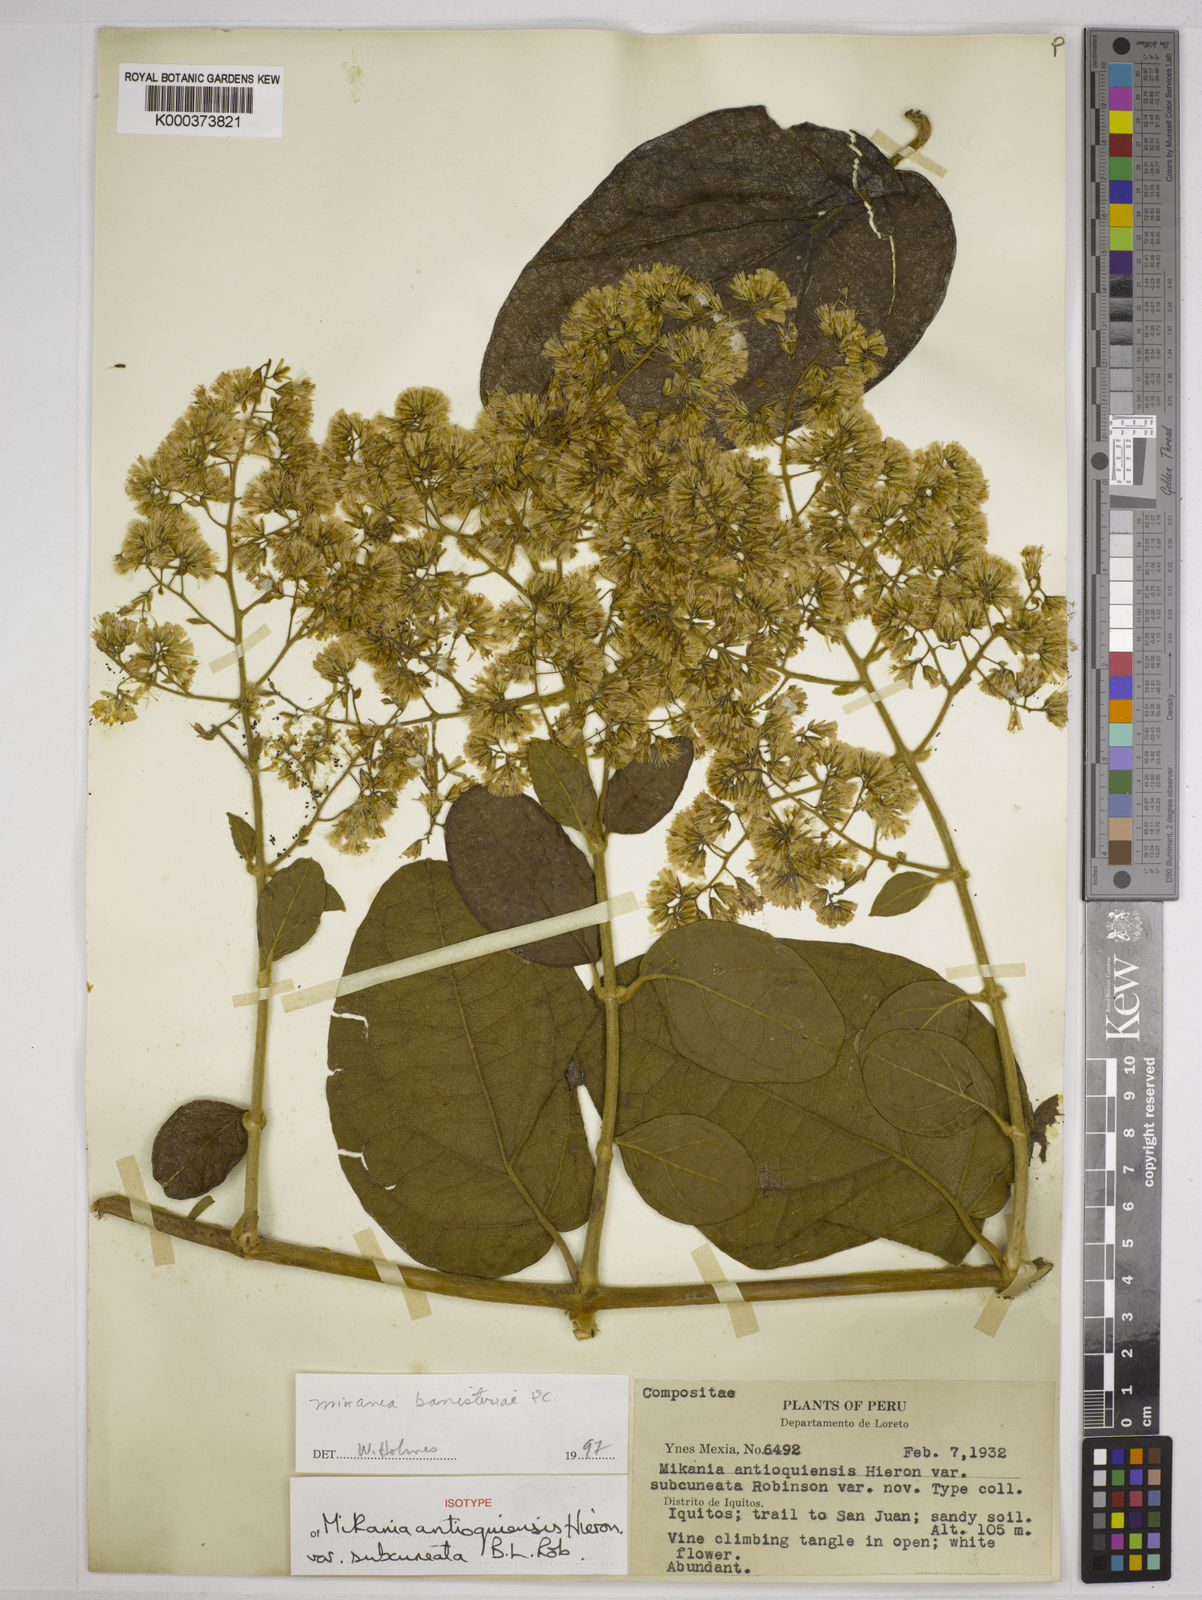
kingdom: Plantae
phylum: Tracheophyta
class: Magnoliopsida
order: Asterales
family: Asteraceae
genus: Mikania
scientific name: Mikania banisteriae
